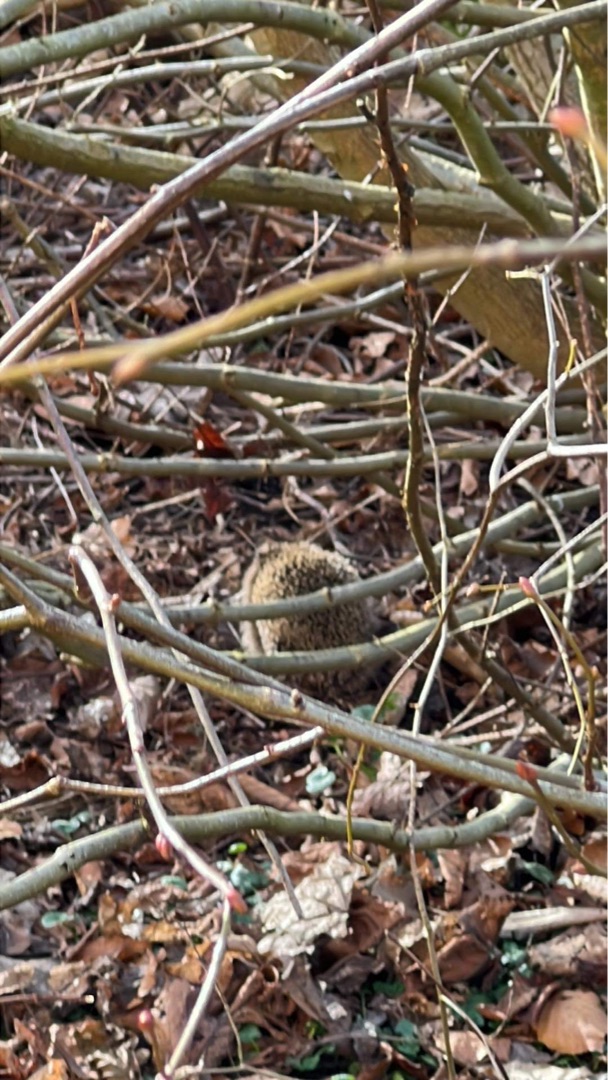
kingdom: Animalia
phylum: Chordata
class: Mammalia
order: Erinaceomorpha
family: Erinaceidae
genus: Erinaceus
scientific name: Erinaceus europaeus
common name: Pindsvin
